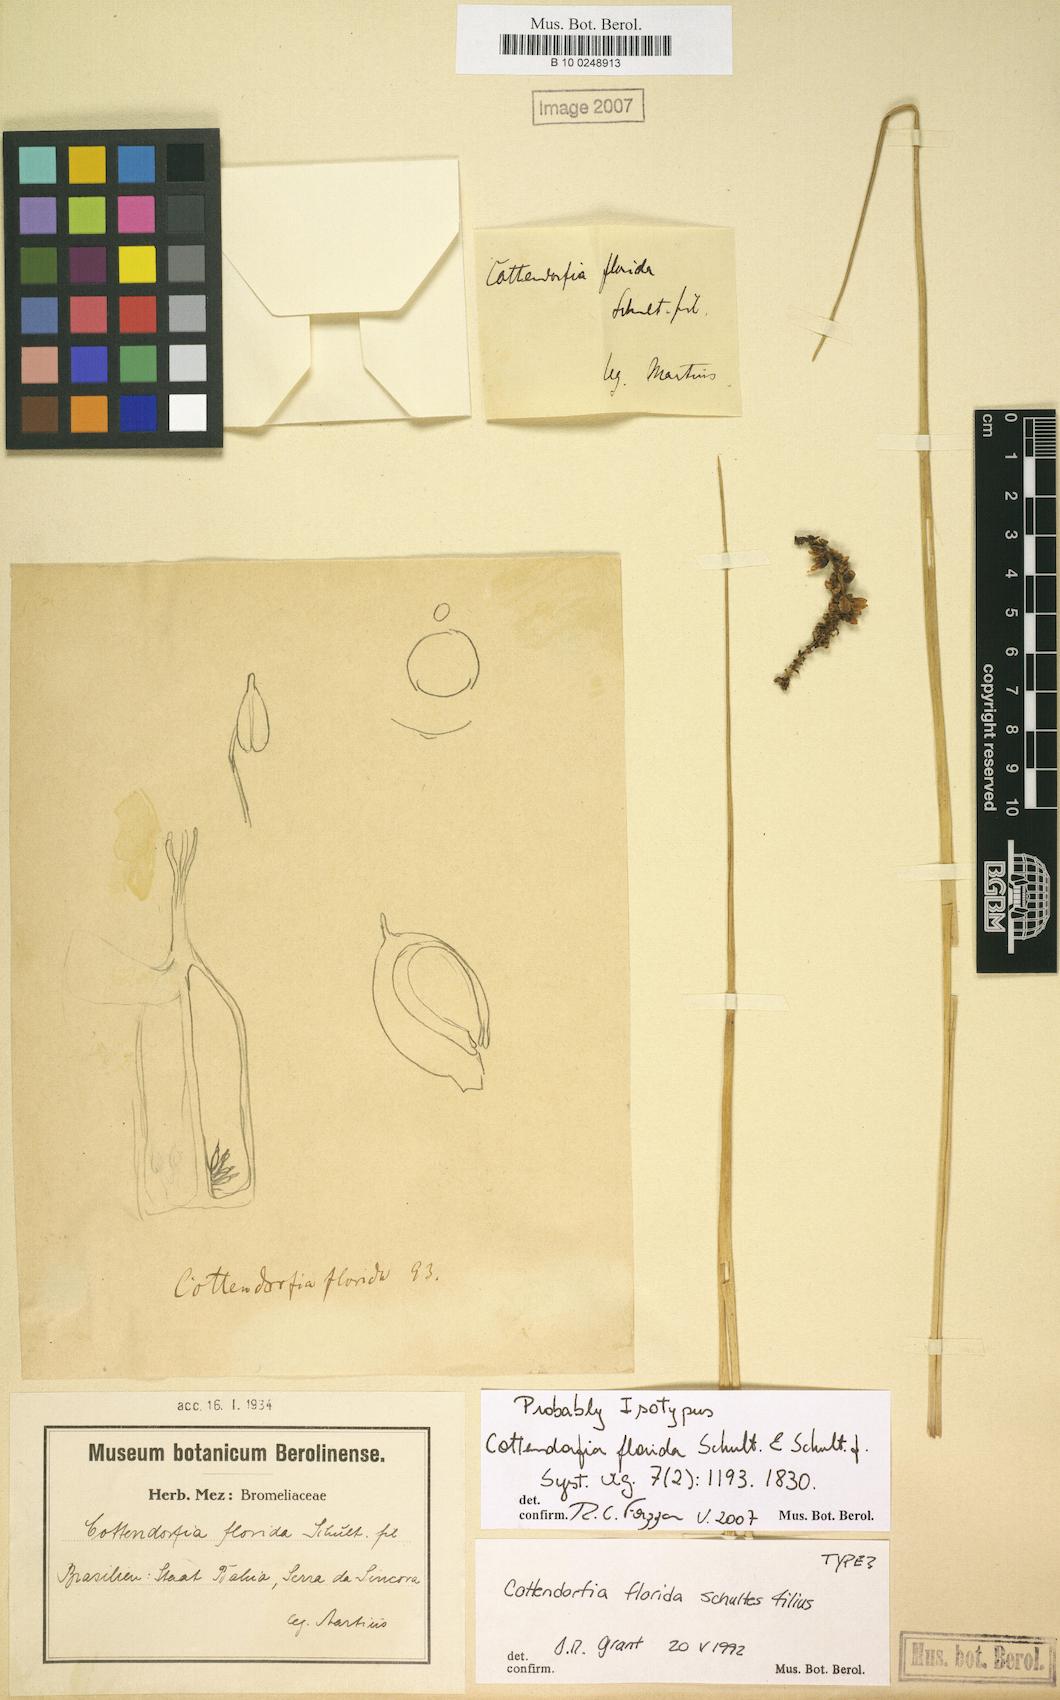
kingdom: Plantae
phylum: Tracheophyta
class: Liliopsida
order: Poales
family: Bromeliaceae
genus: Cottendorfia
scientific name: Cottendorfia florida
